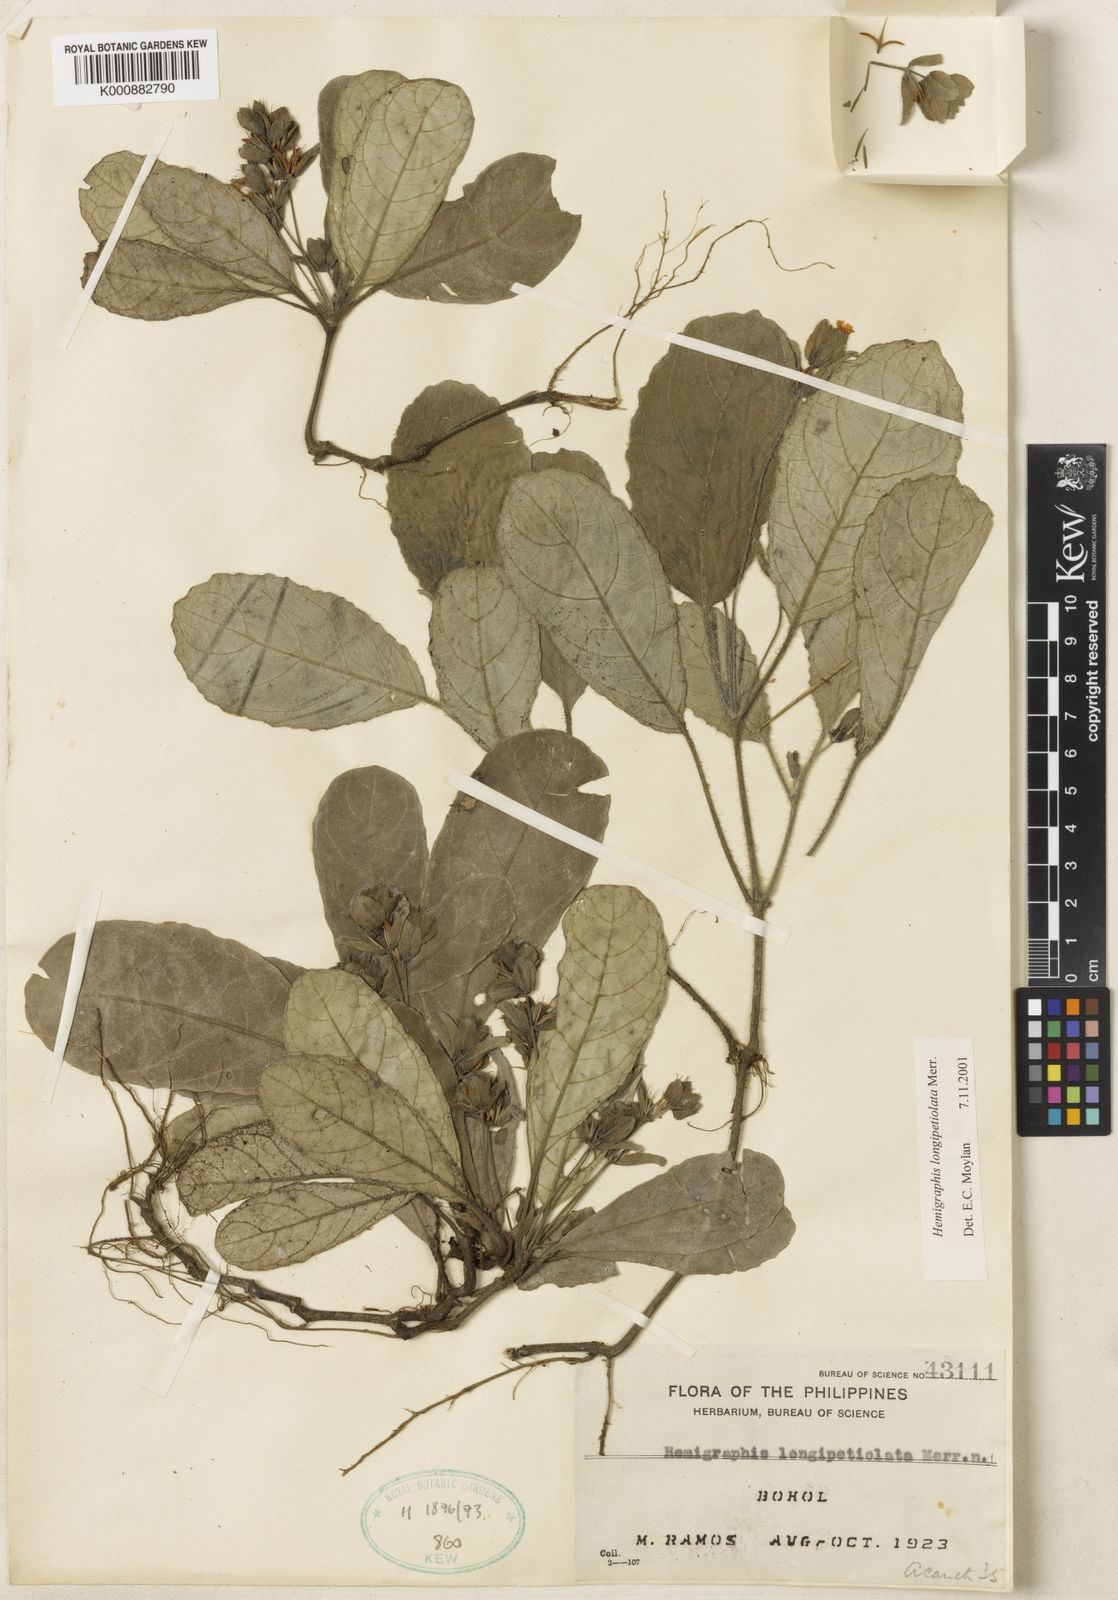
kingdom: Plantae
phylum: Tracheophyta
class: Magnoliopsida
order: Lamiales
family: Acanthaceae
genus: Strobilanthes
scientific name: Strobilanthes longipetiolata
